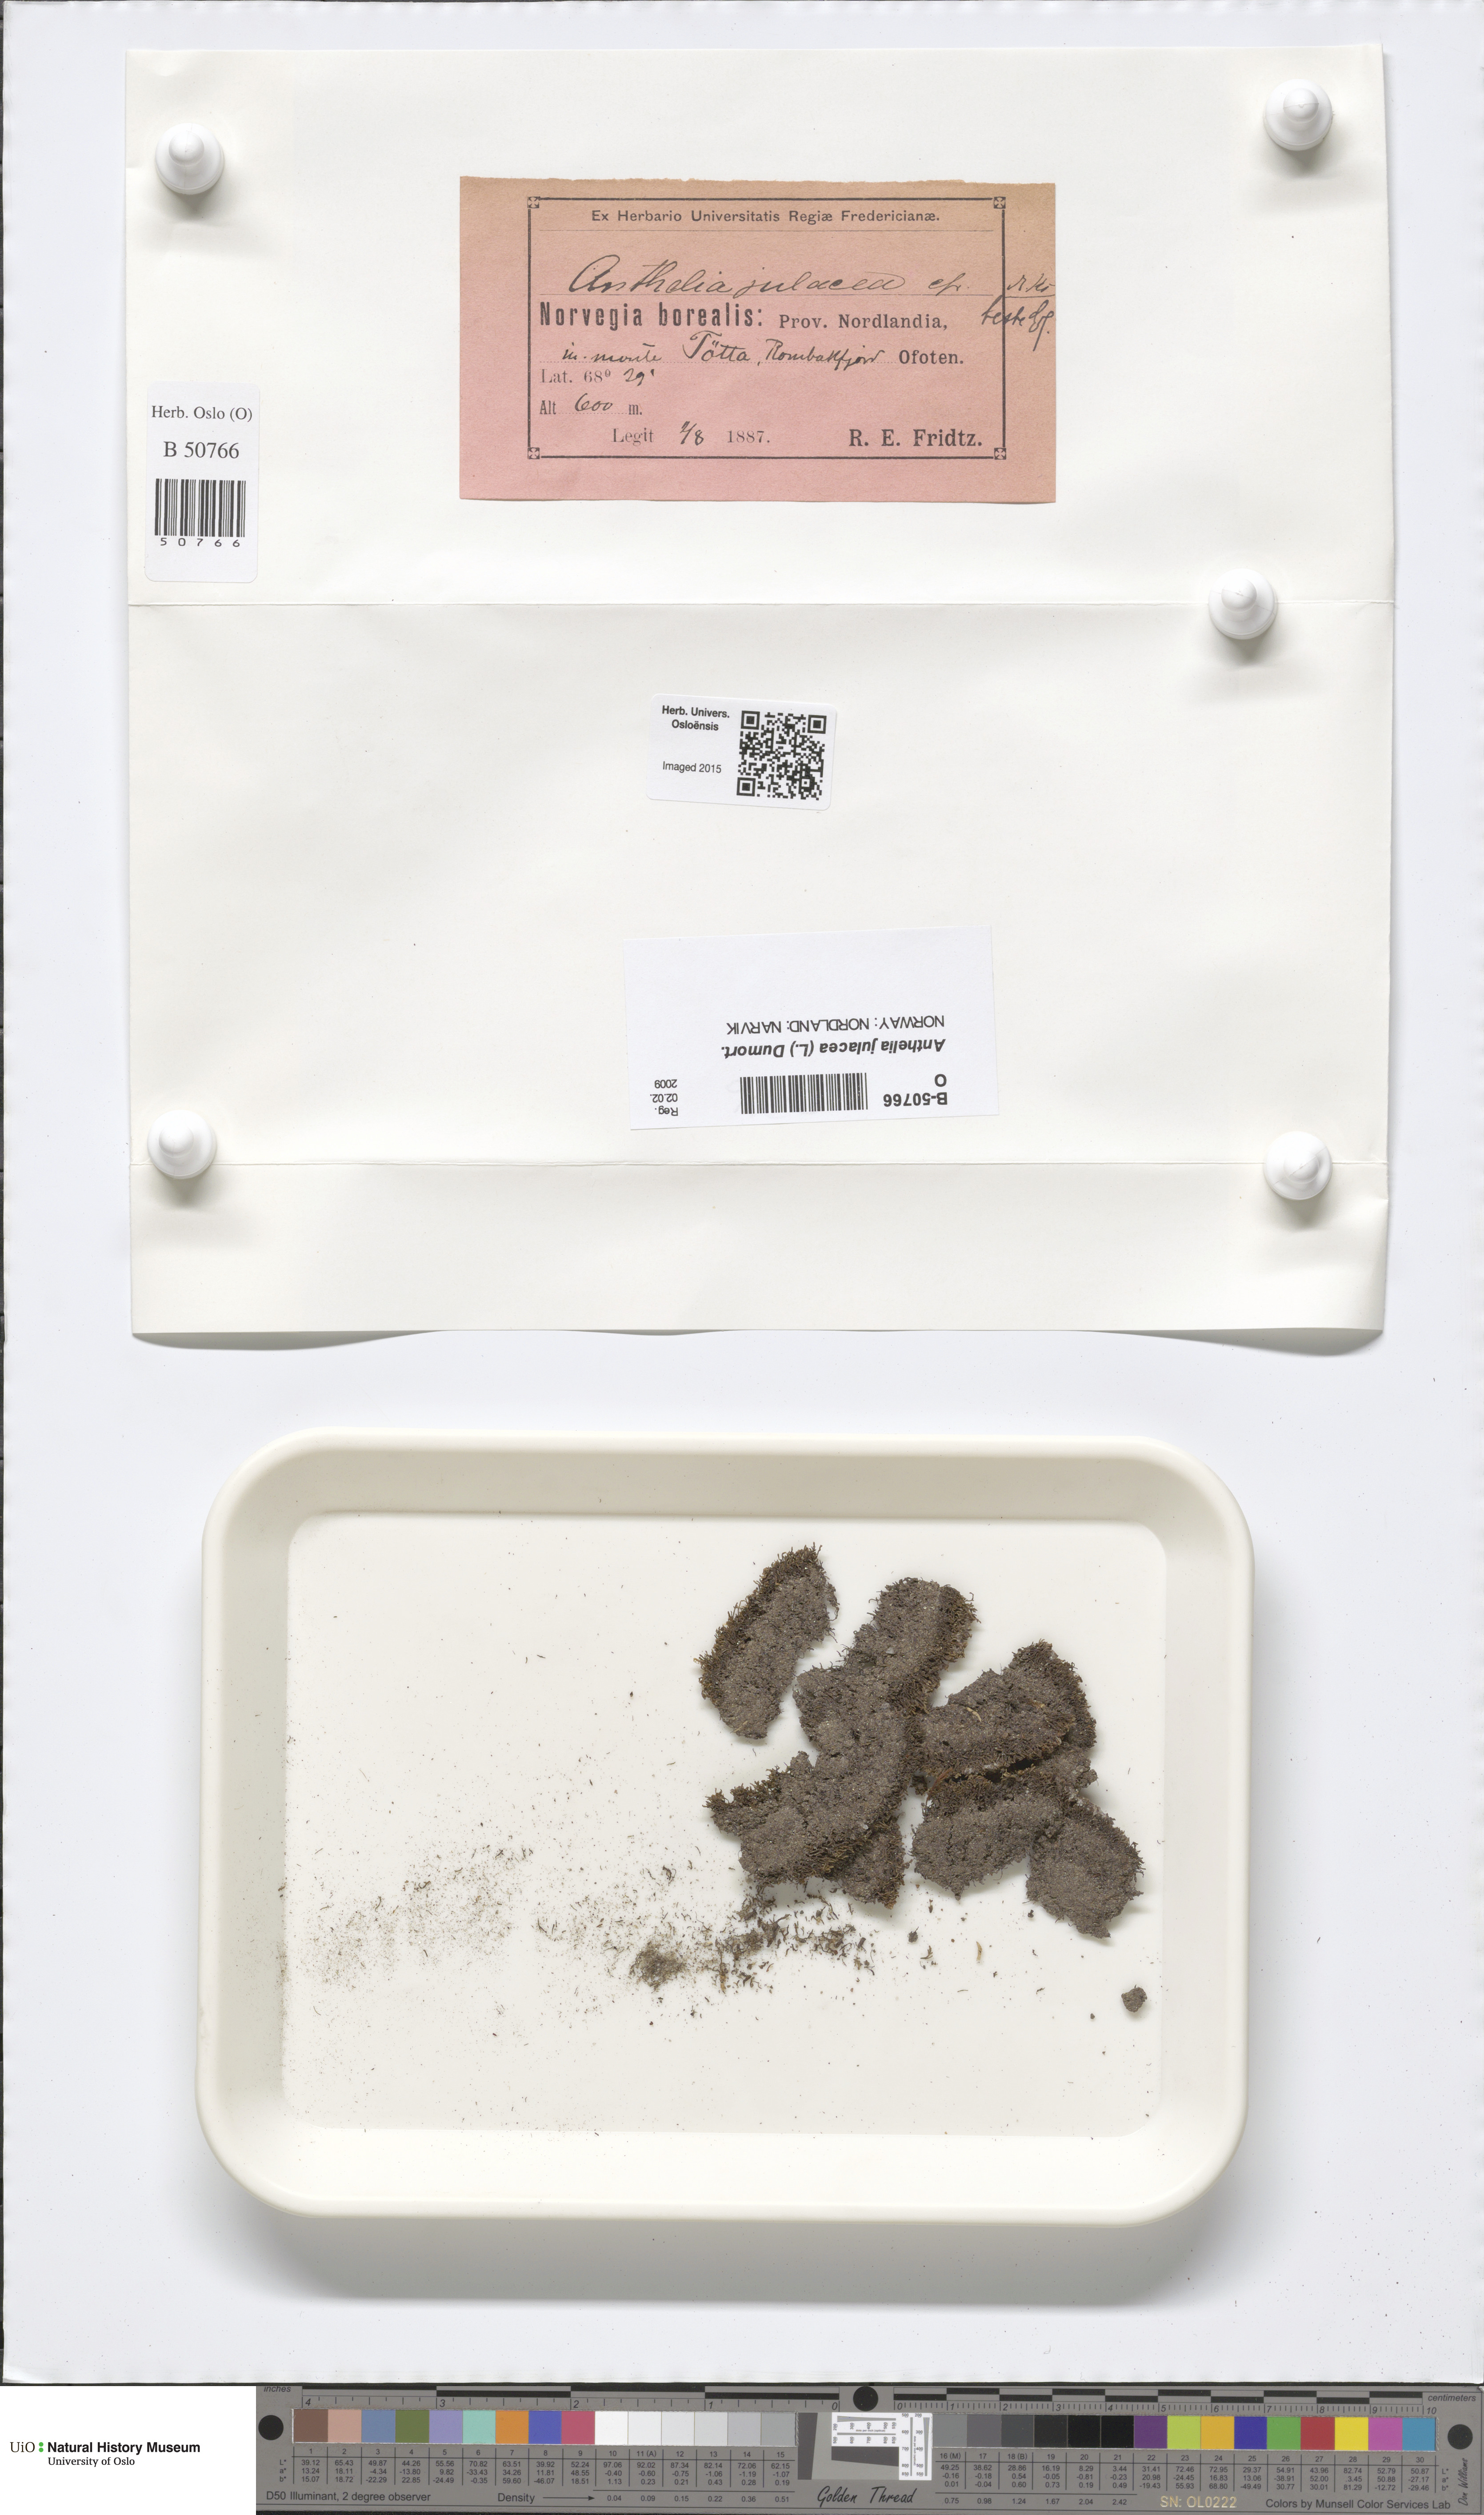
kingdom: Plantae
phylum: Marchantiophyta
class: Jungermanniopsida
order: Jungermanniales
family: Antheliaceae
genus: Anthelia
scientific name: Anthelia julacea
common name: Alpine silverwort
